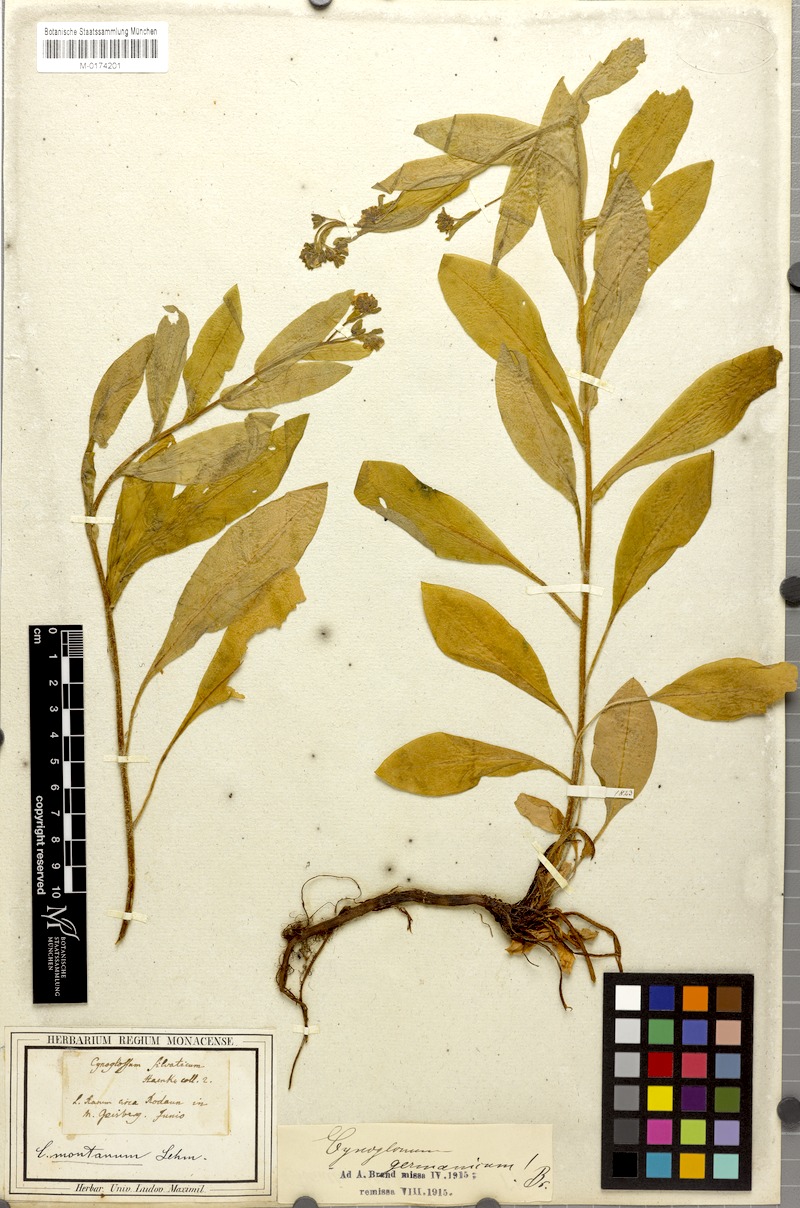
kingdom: Plantae
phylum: Tracheophyta
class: Magnoliopsida
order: Boraginales
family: Boraginaceae
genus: Cynoglossum
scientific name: Cynoglossum germanicum
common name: Green hound's-tongue
